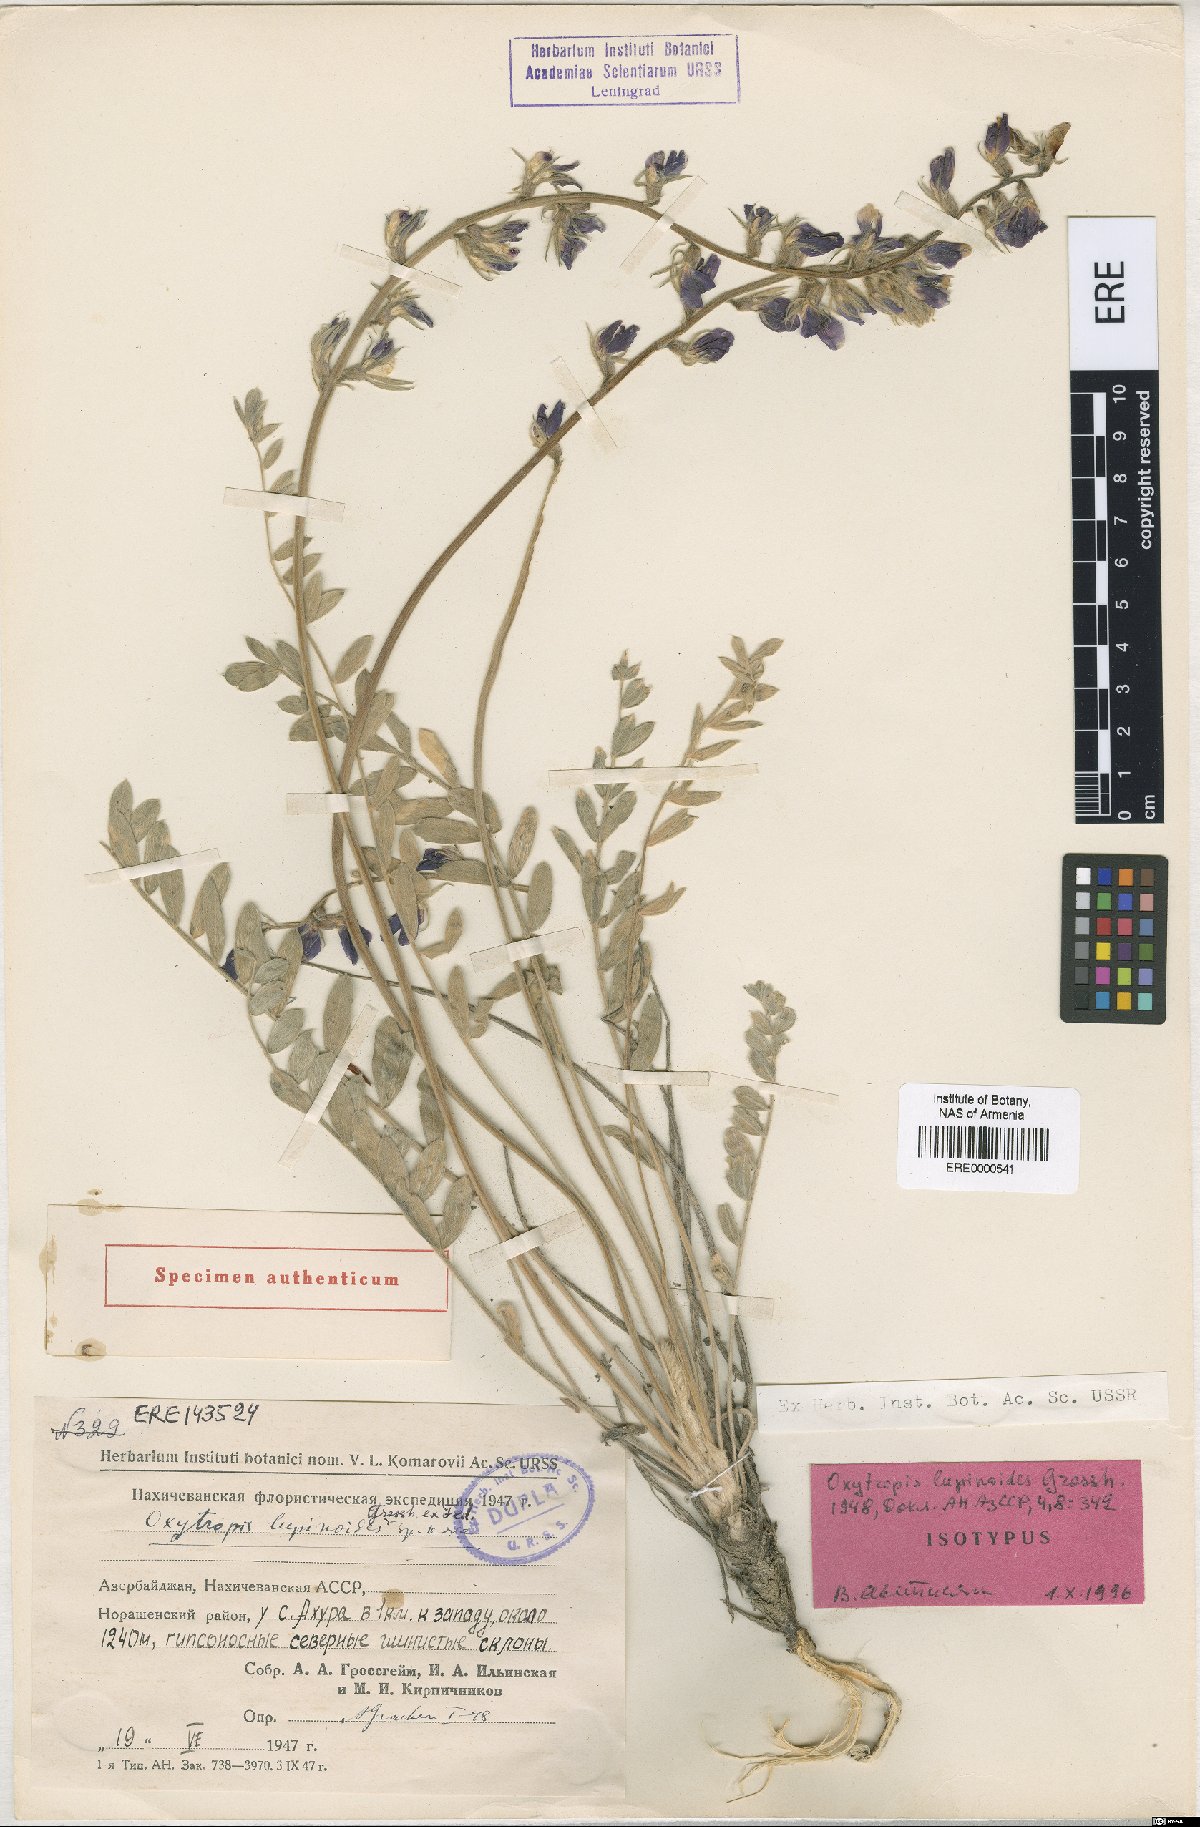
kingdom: Plantae
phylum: Tracheophyta
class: Magnoliopsida
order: Fabales
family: Fabaceae
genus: Oxytropis
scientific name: Oxytropis lupinoides
